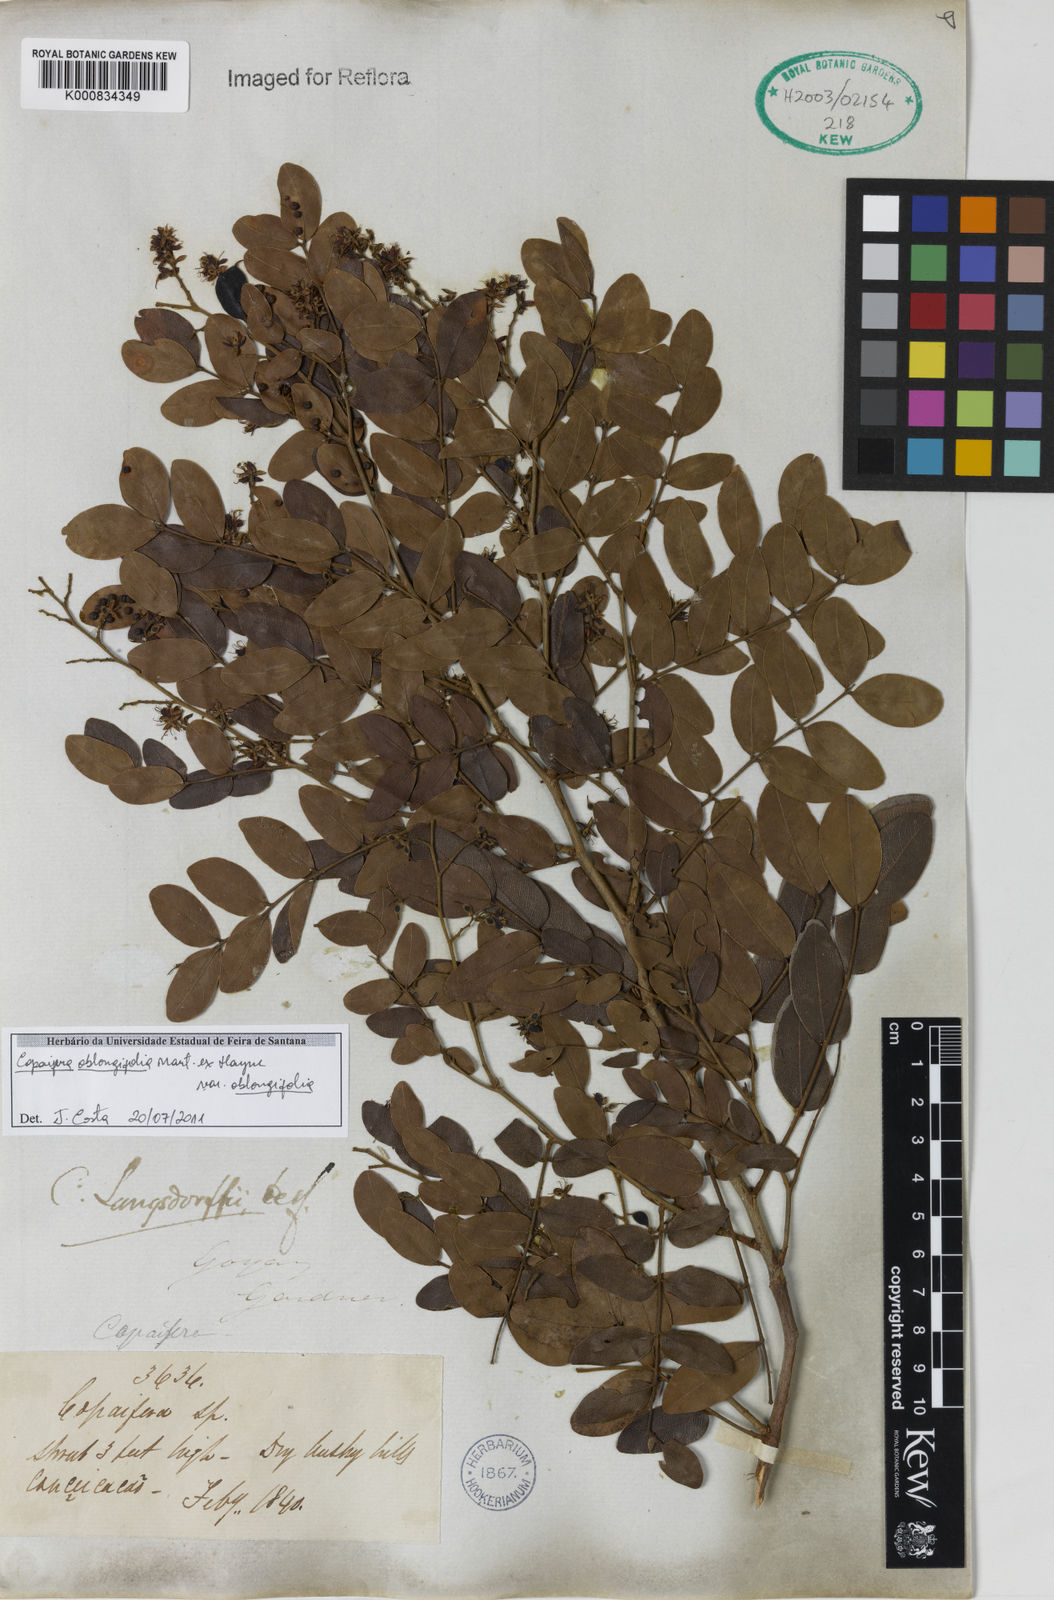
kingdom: Plantae
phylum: Tracheophyta
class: Magnoliopsida
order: Fabales
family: Fabaceae
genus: Copaifera
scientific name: Copaifera
